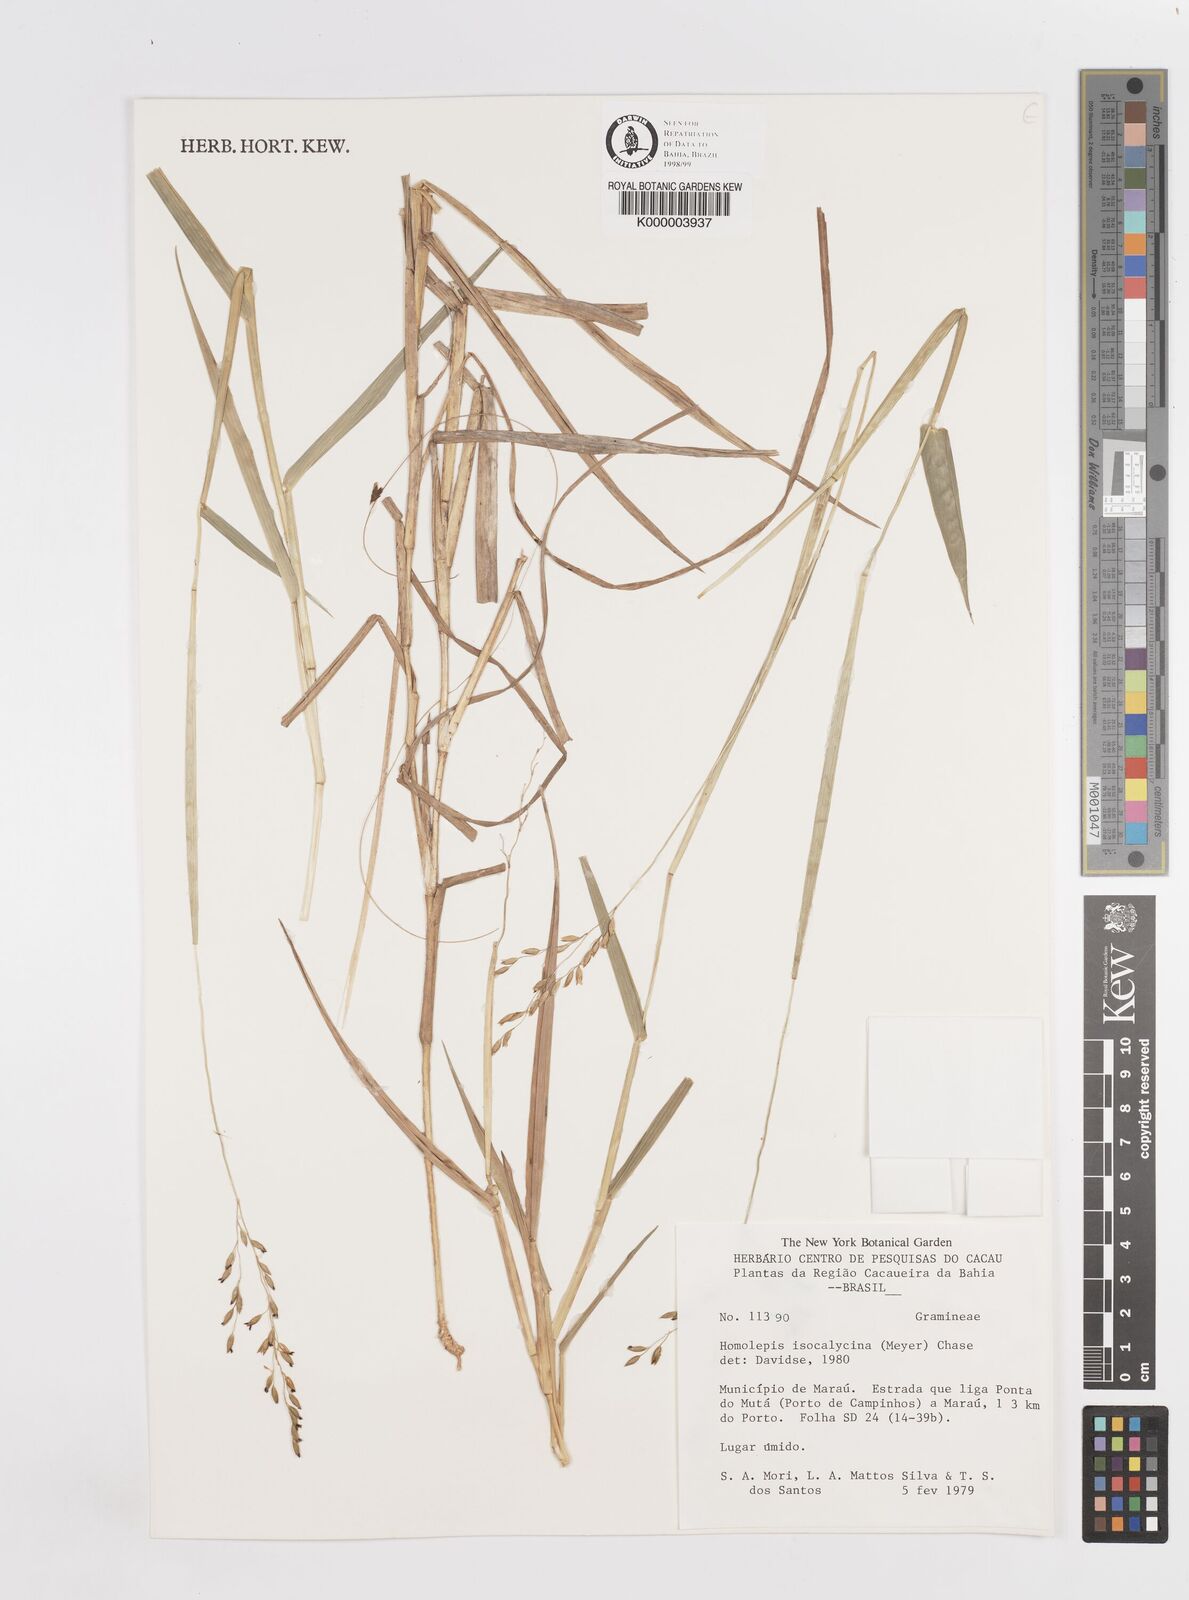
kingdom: Plantae
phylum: Tracheophyta
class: Liliopsida
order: Poales
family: Poaceae
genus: Homolepis
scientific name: Homolepis
